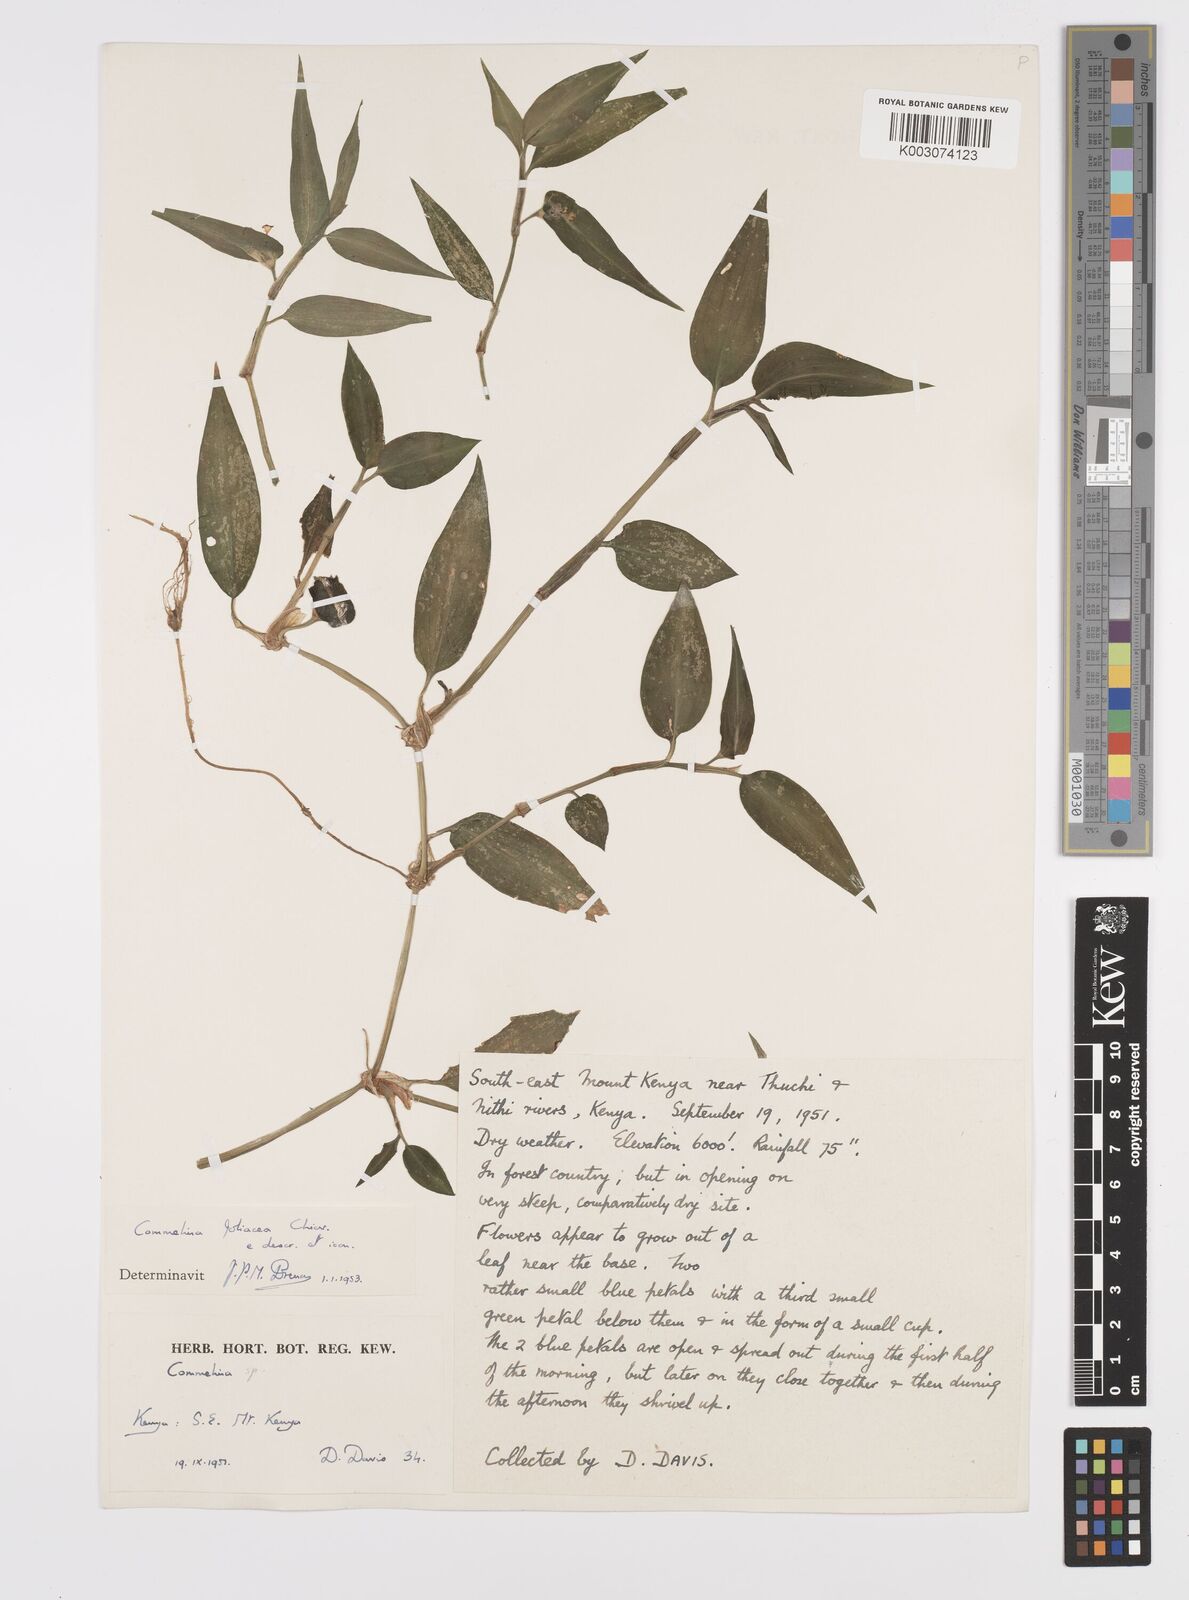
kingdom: Plantae
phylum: Tracheophyta
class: Liliopsida
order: Commelinales
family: Commelinaceae
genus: Commelina
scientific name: Commelina foliacea
